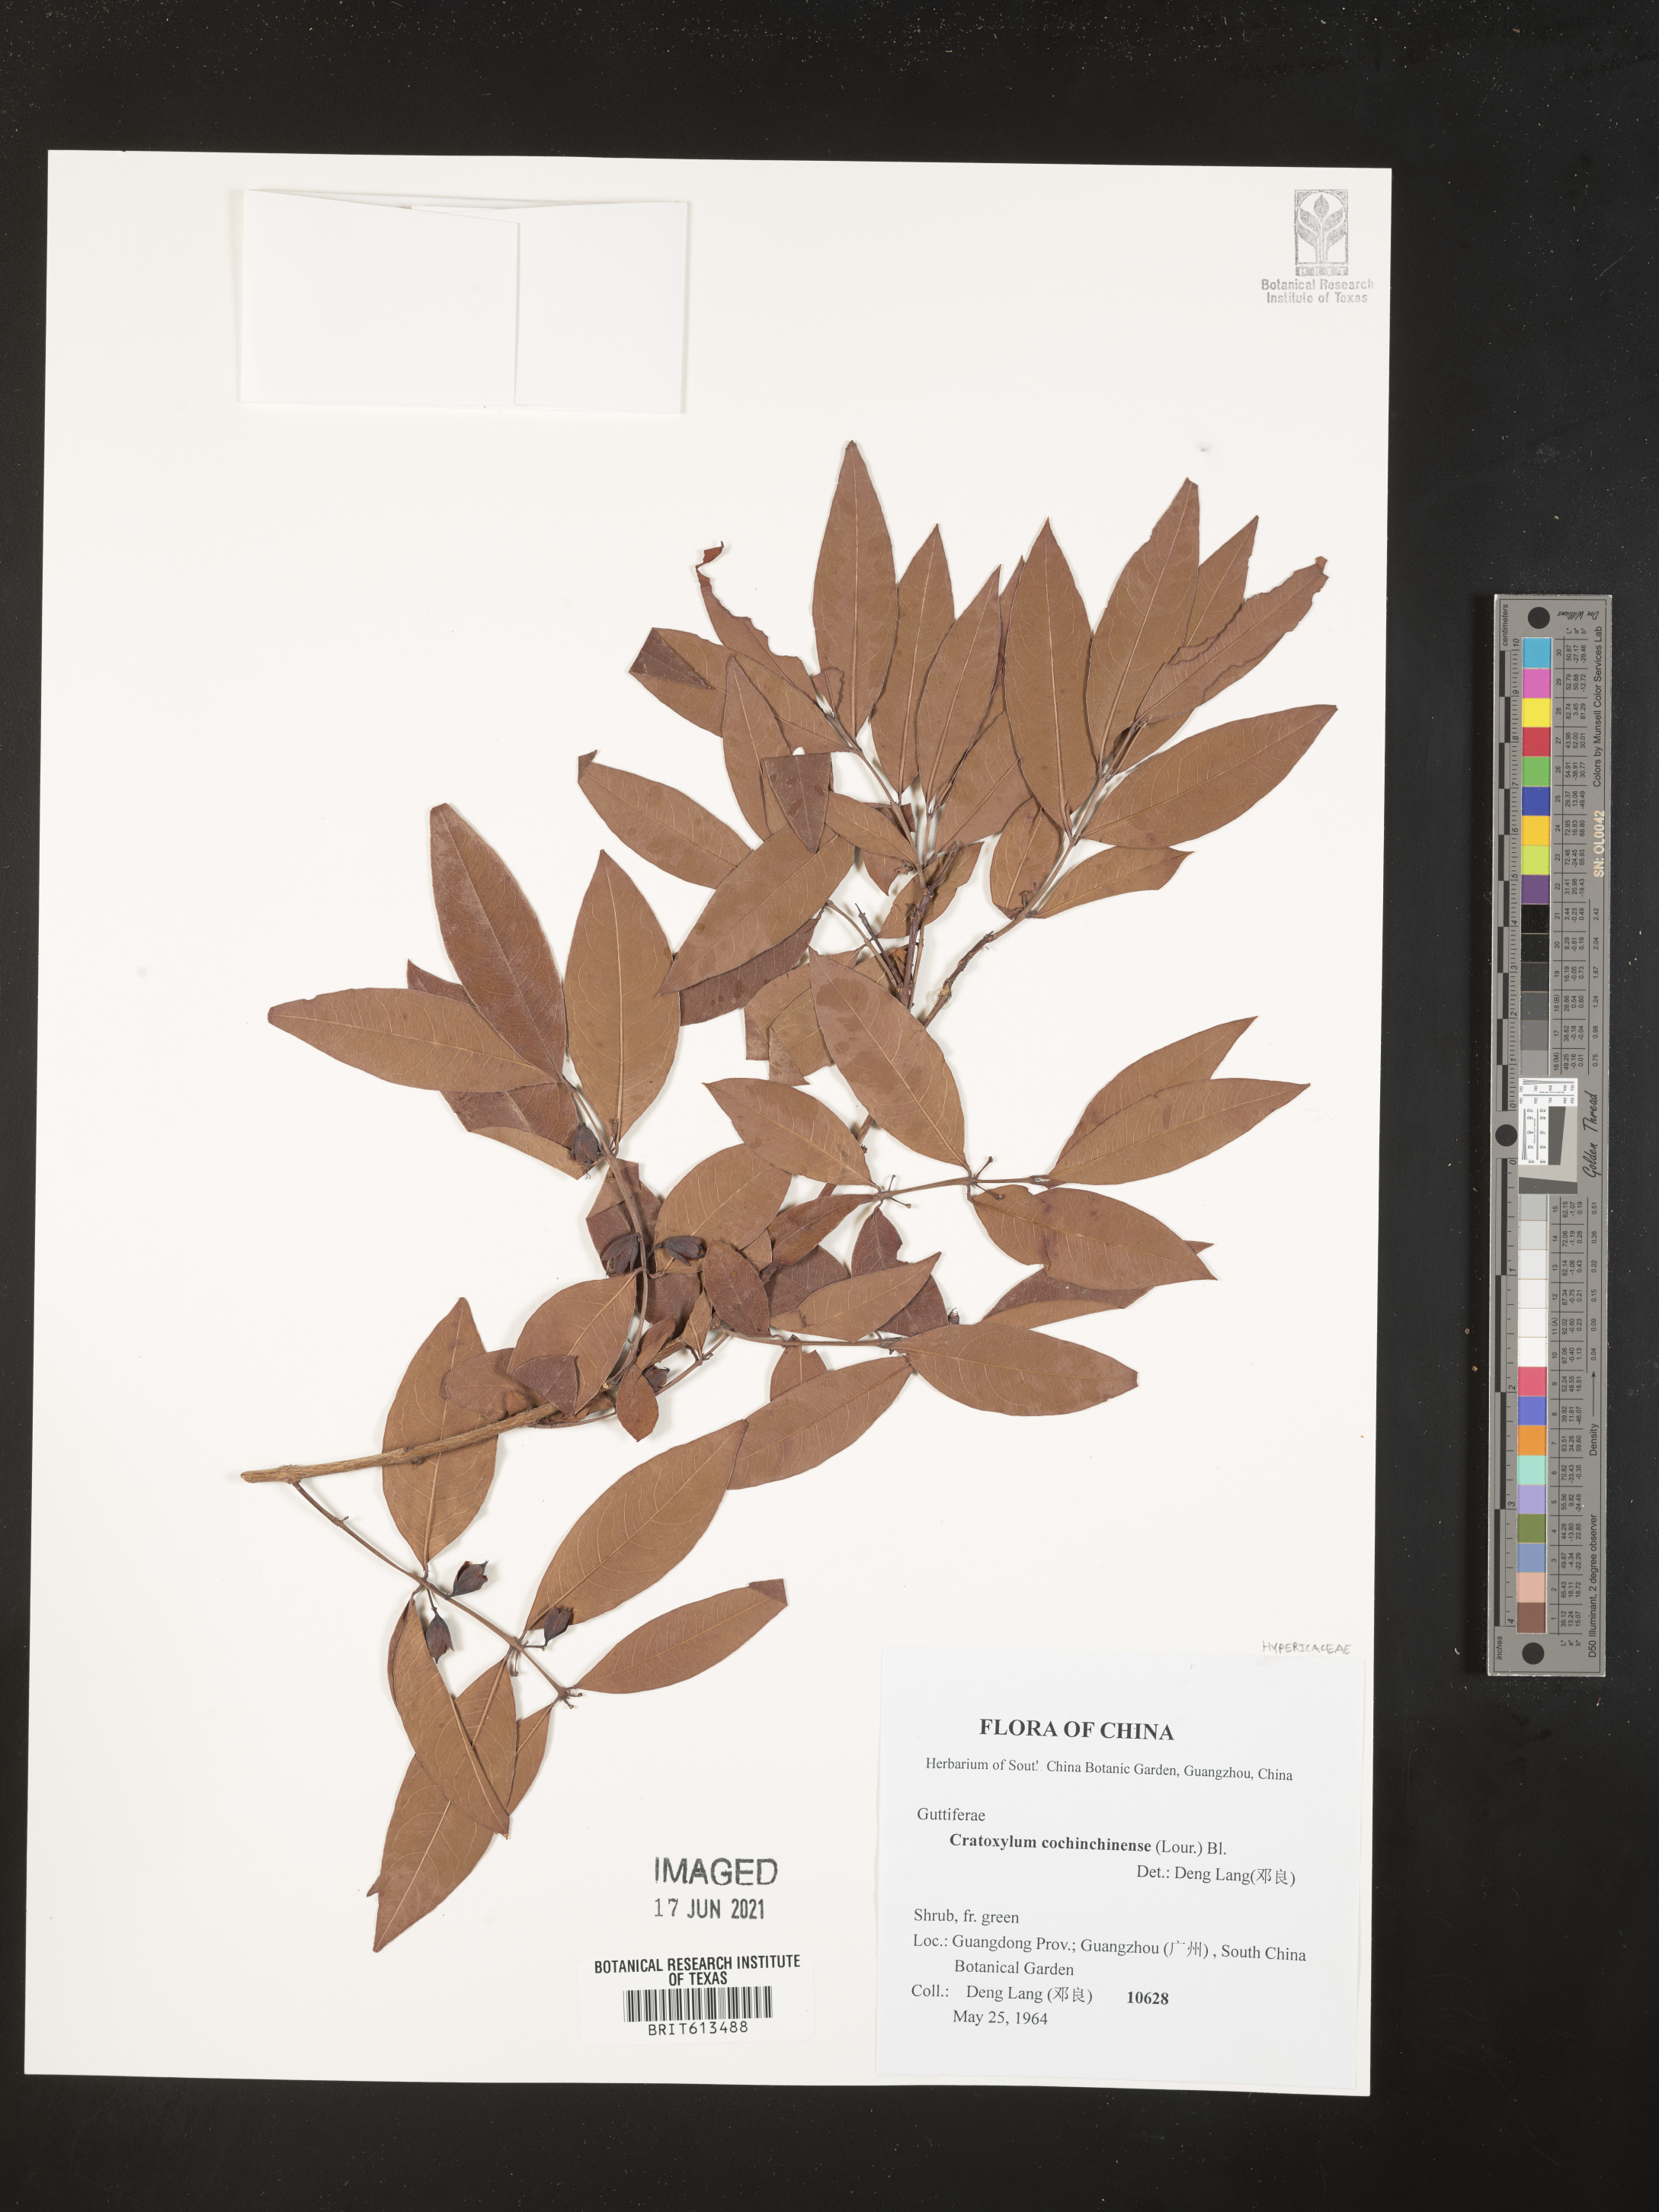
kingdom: Plantae
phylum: Tracheophyta
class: Magnoliopsida
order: Malpighiales
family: Hypericaceae
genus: Cratoxylum
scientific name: Cratoxylum cochinchinense
